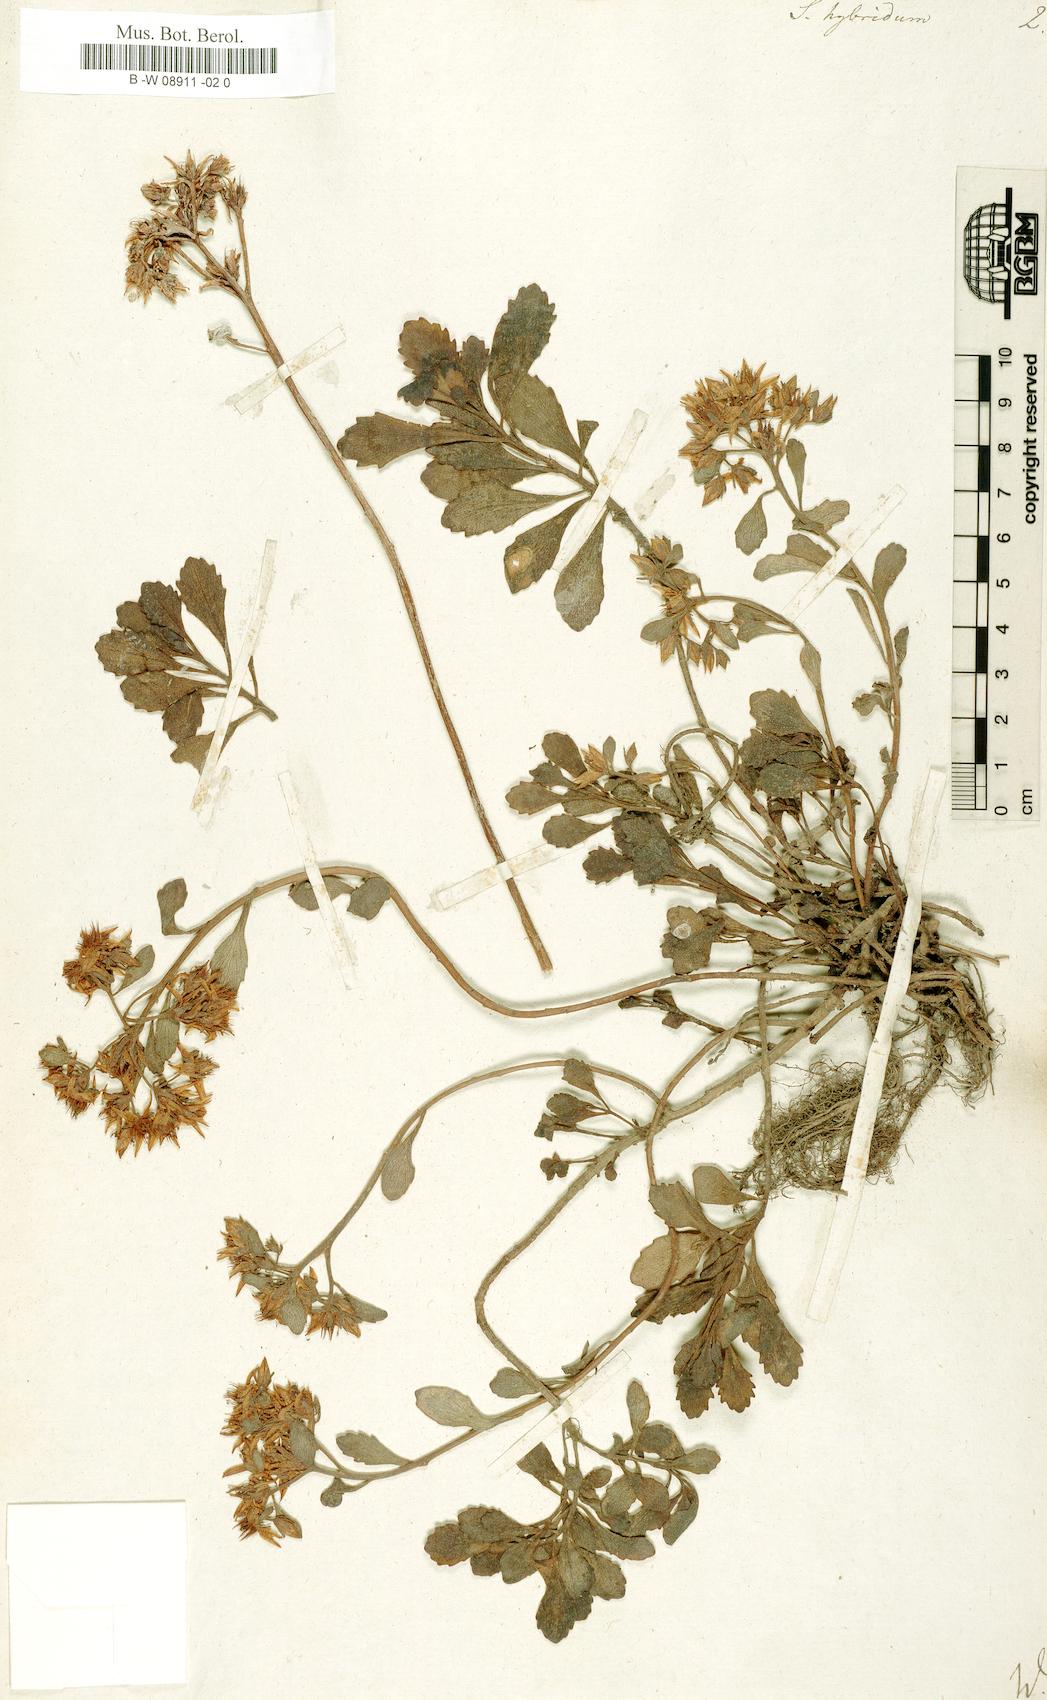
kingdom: Plantae
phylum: Tracheophyta
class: Magnoliopsida
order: Saxifragales
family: Crassulaceae
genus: Phedimus
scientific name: Phedimus
